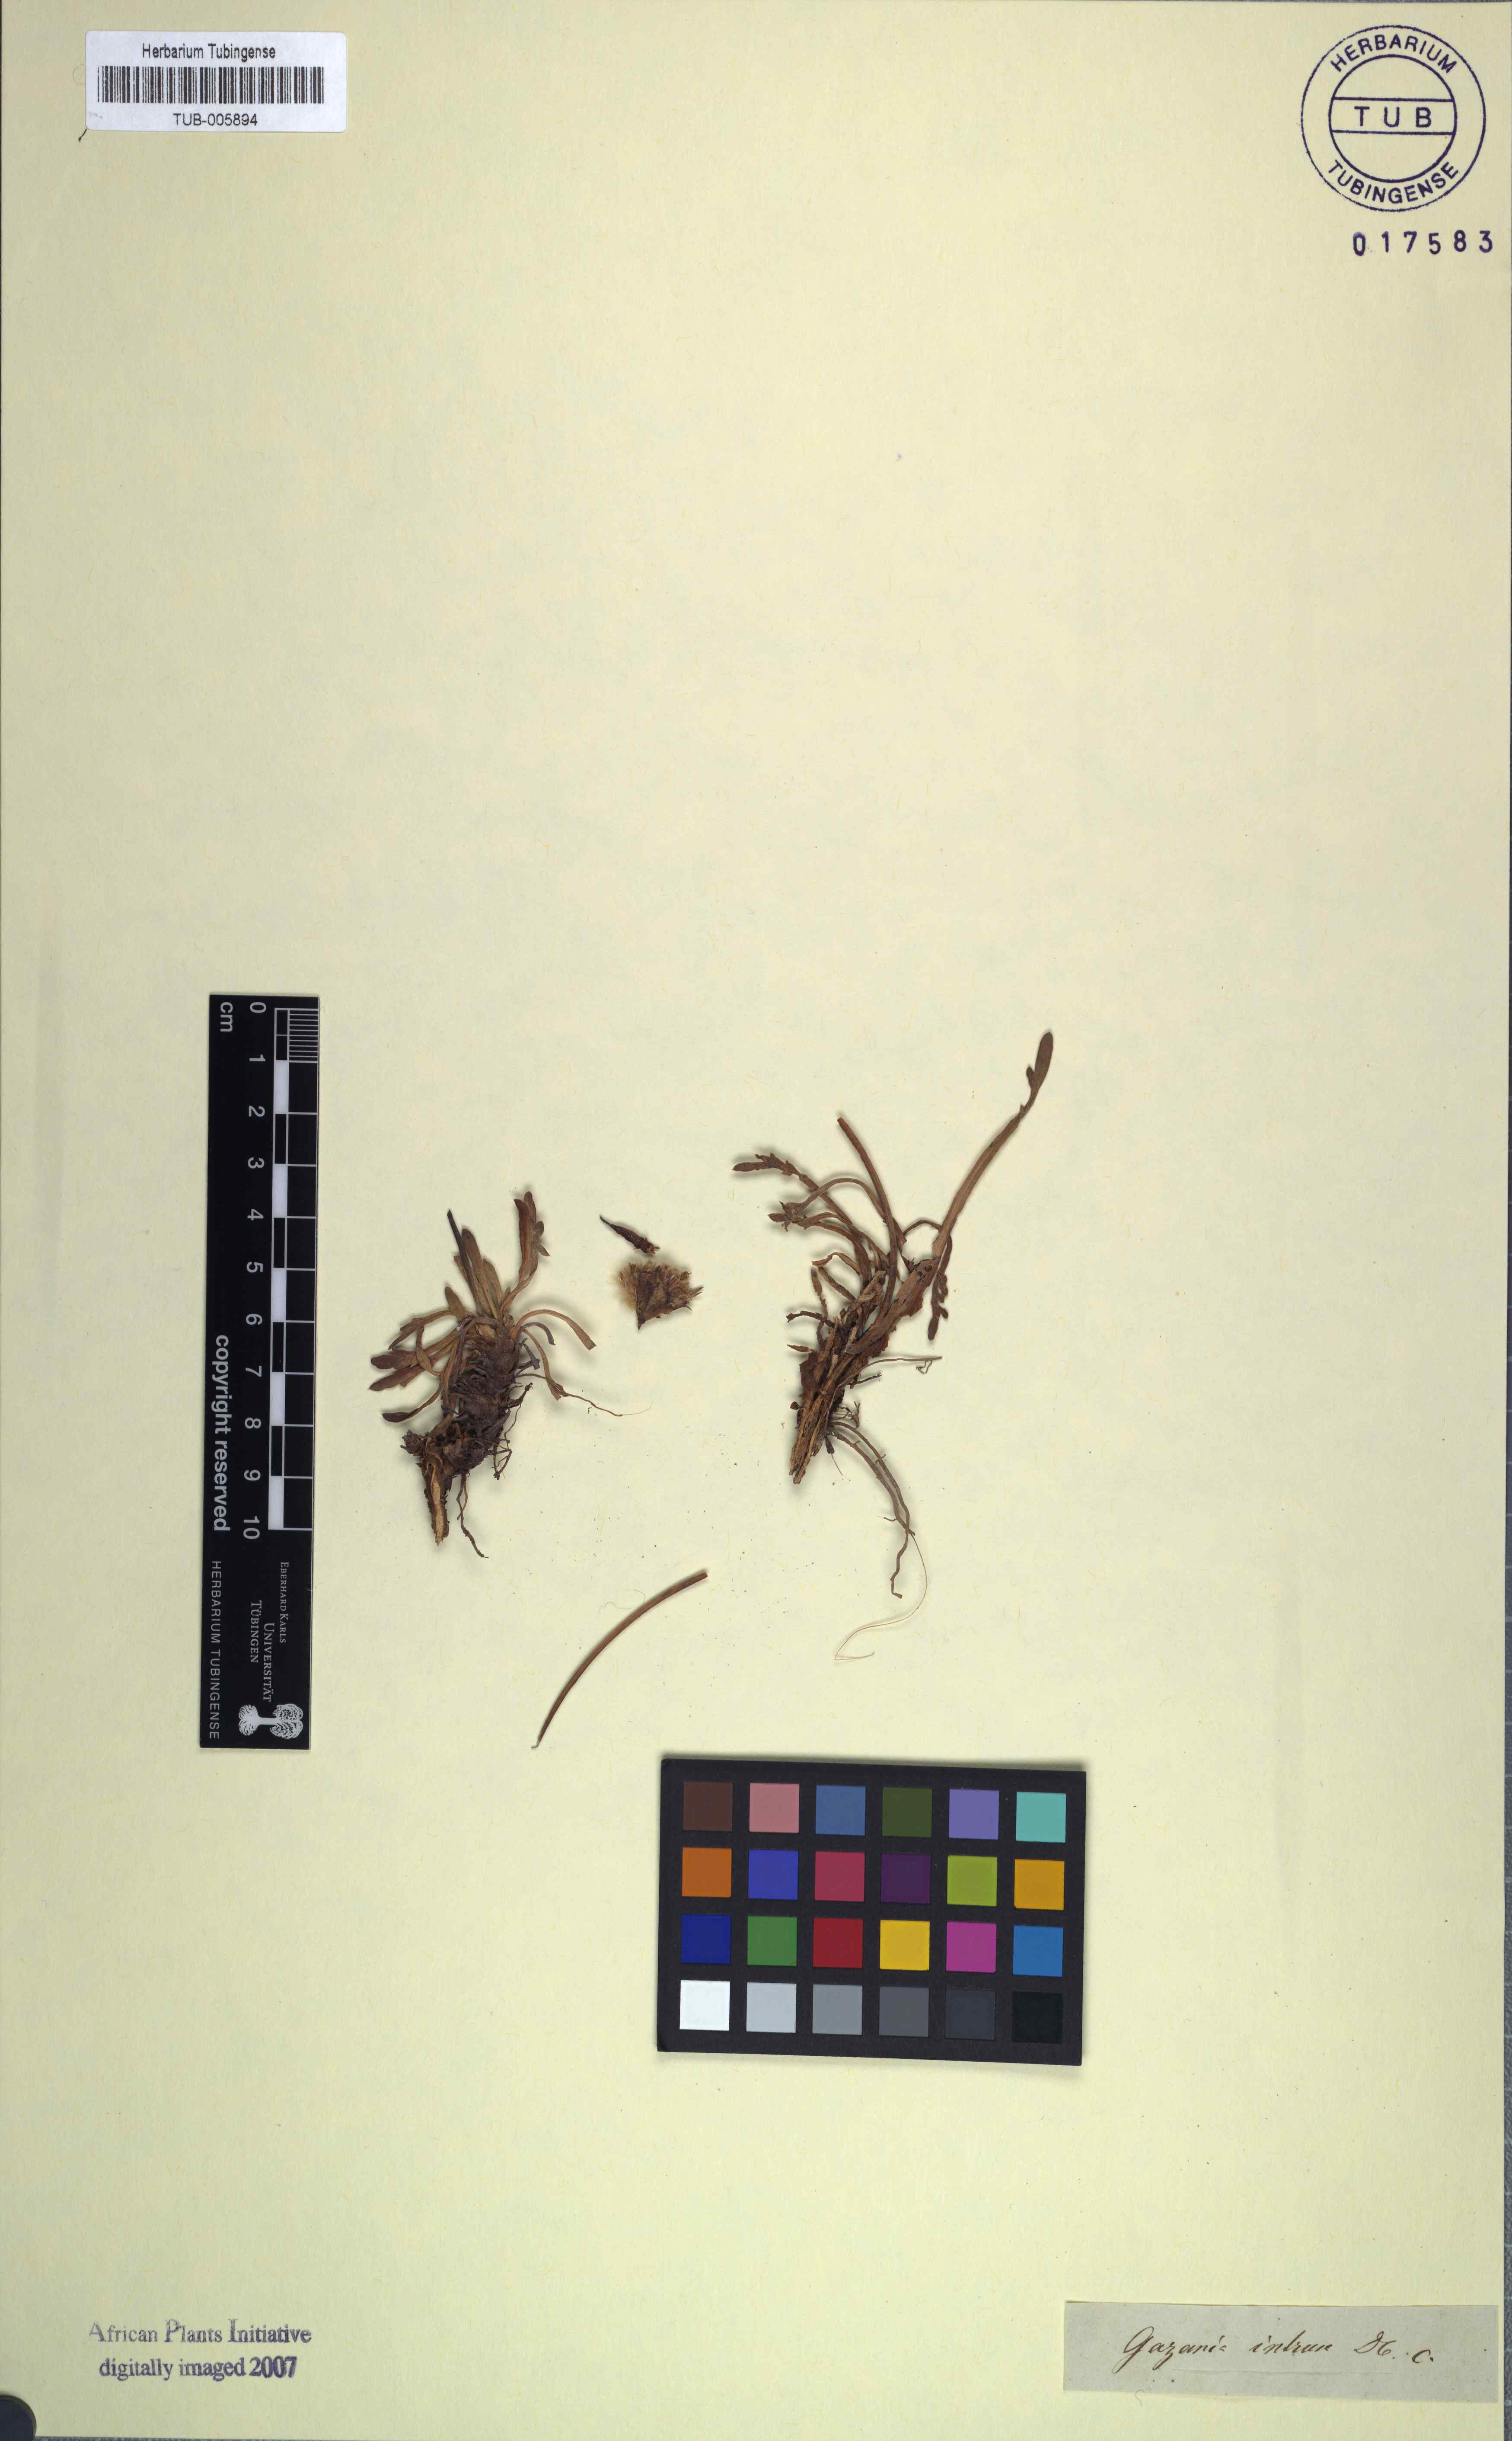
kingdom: Plantae
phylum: Tracheophyta
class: Magnoliopsida
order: Asterales
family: Asteraceae
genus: Gazania
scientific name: Gazania othonnites
